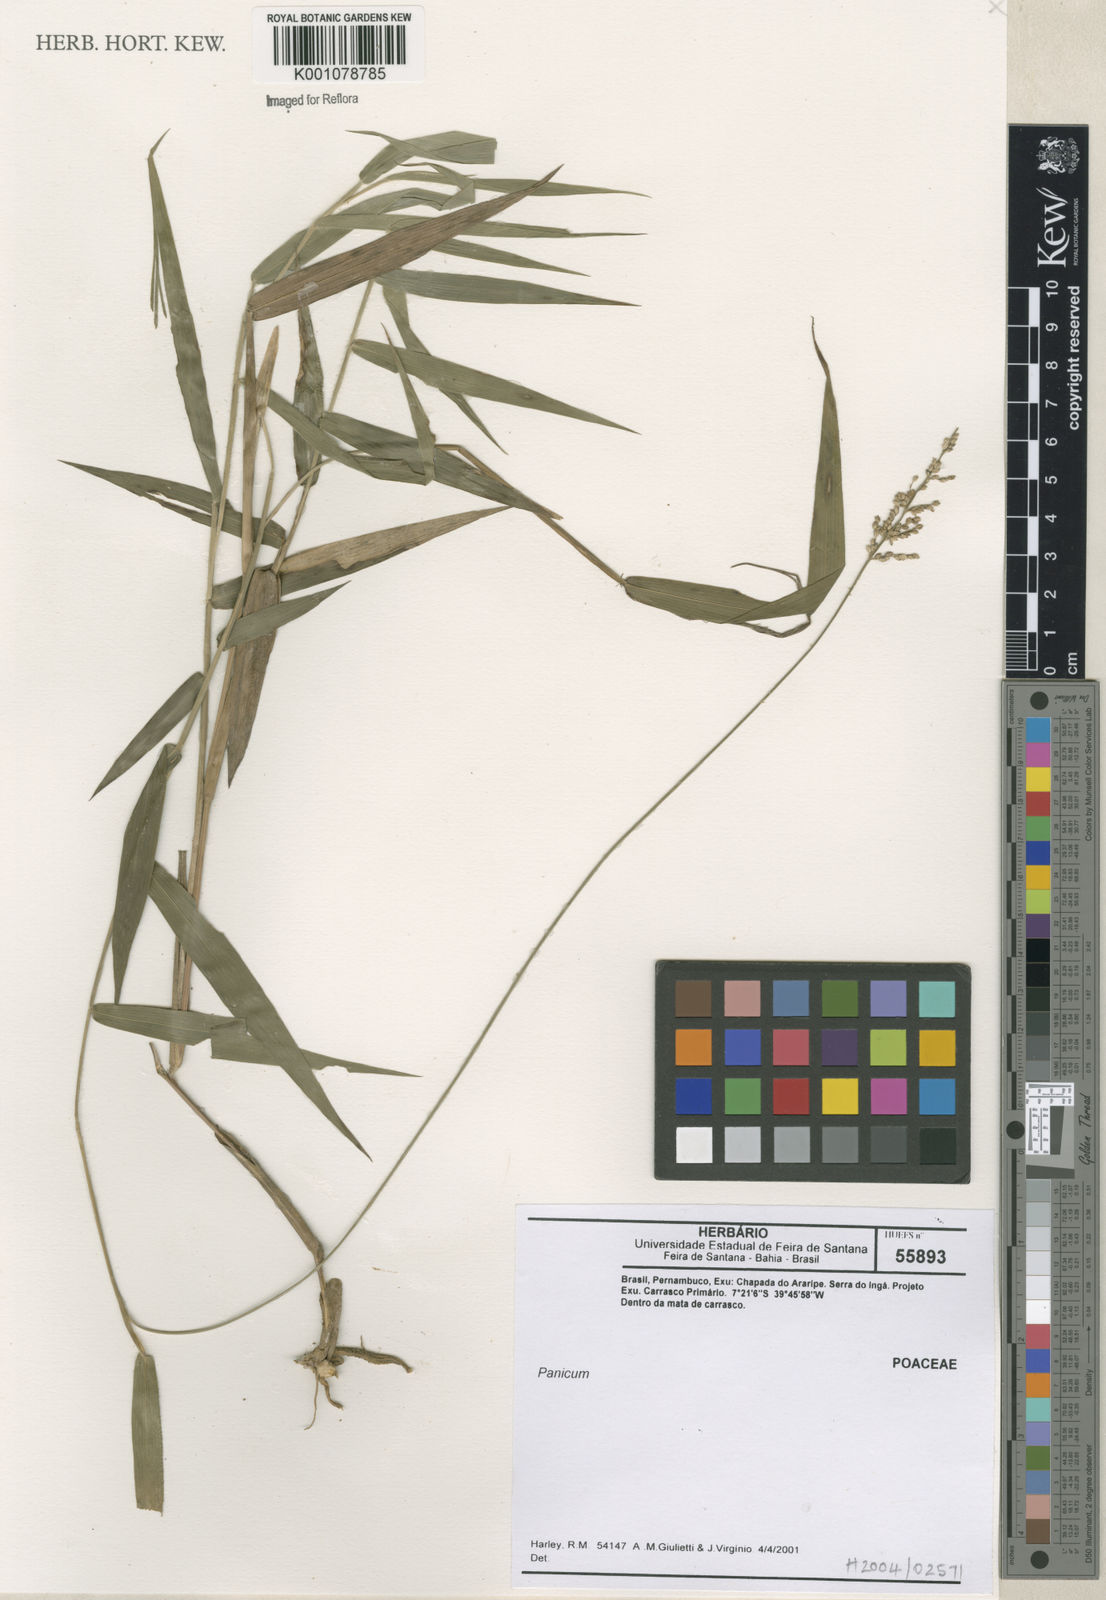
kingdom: Plantae
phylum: Tracheophyta
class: Liliopsida
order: Poales
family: Poaceae
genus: Panicum
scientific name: Panicum
